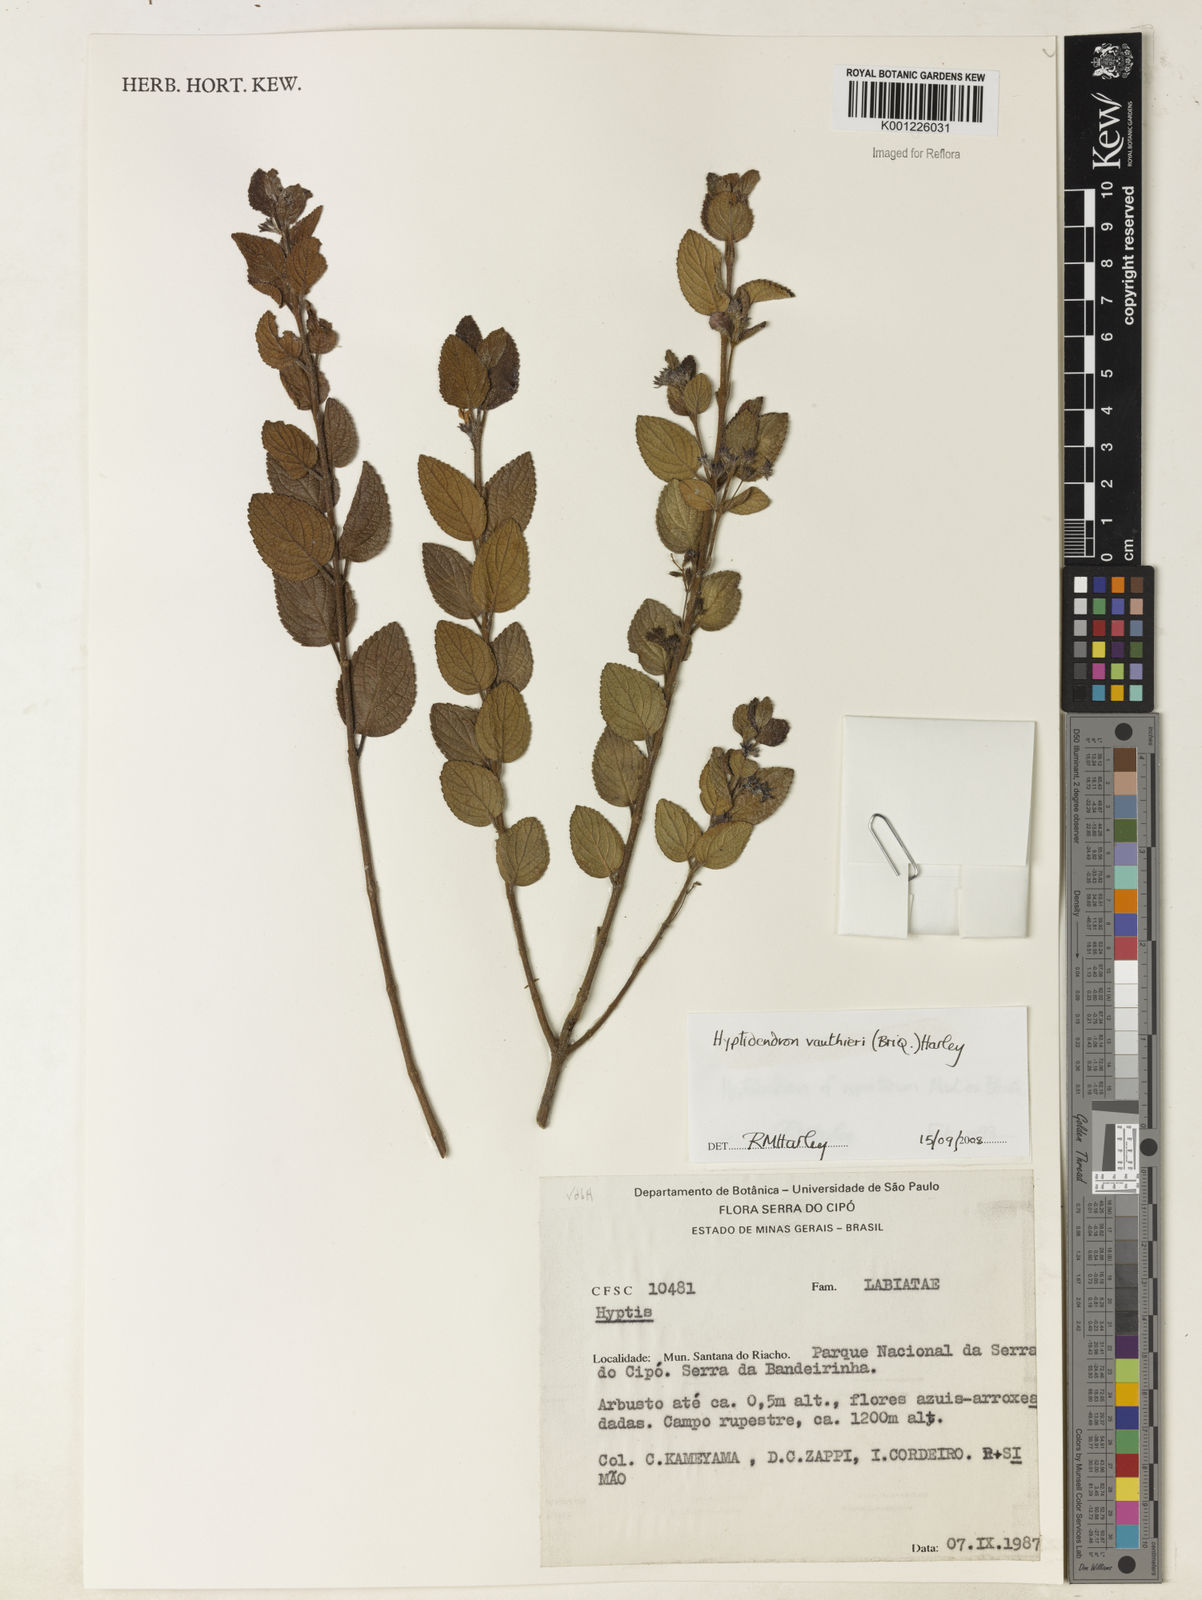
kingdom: Plantae
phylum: Tracheophyta
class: Magnoliopsida
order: Lamiales
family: Lamiaceae
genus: Hyptidendron
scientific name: Hyptidendron vauthieri
